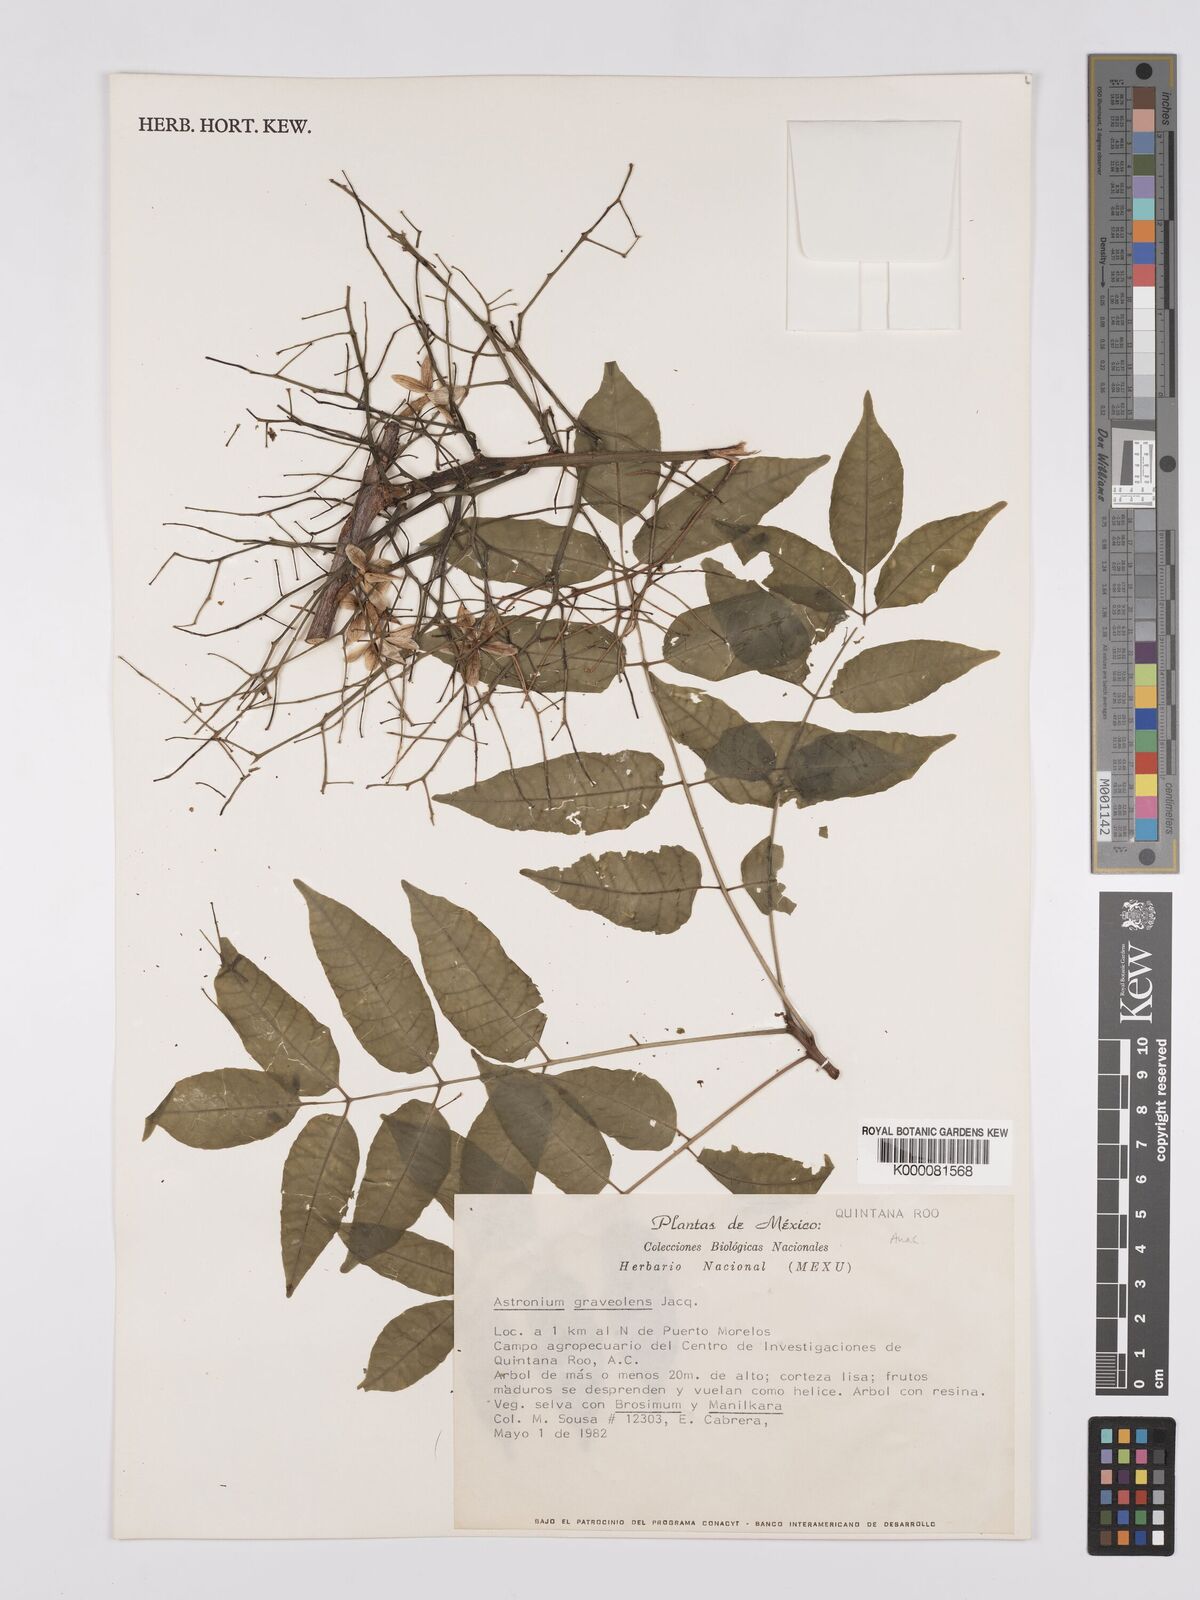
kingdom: Plantae
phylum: Tracheophyta
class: Magnoliopsida
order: Sapindales
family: Anacardiaceae
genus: Astronium
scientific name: Astronium graveolens
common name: Glassywood
